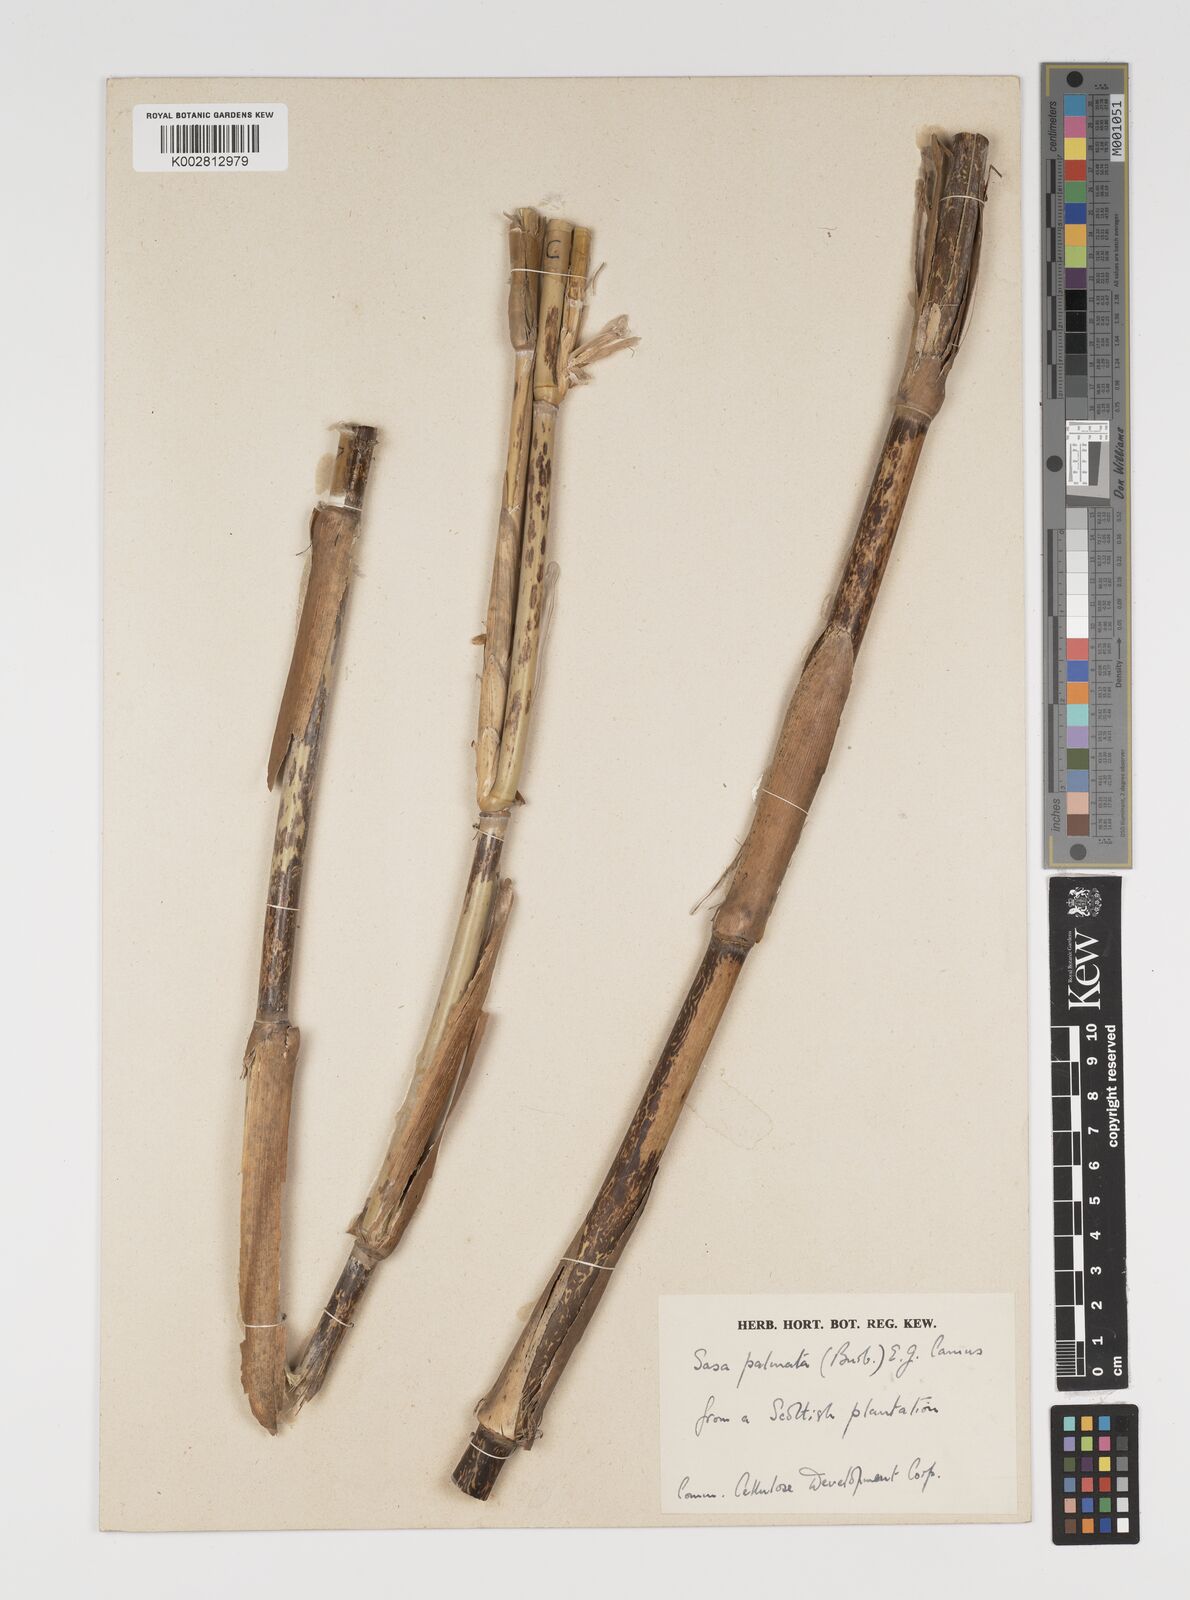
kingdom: Plantae
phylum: Tracheophyta
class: Liliopsida
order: Poales
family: Poaceae
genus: Sasa
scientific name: Sasa palmata
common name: Broad-leaved bamboo
